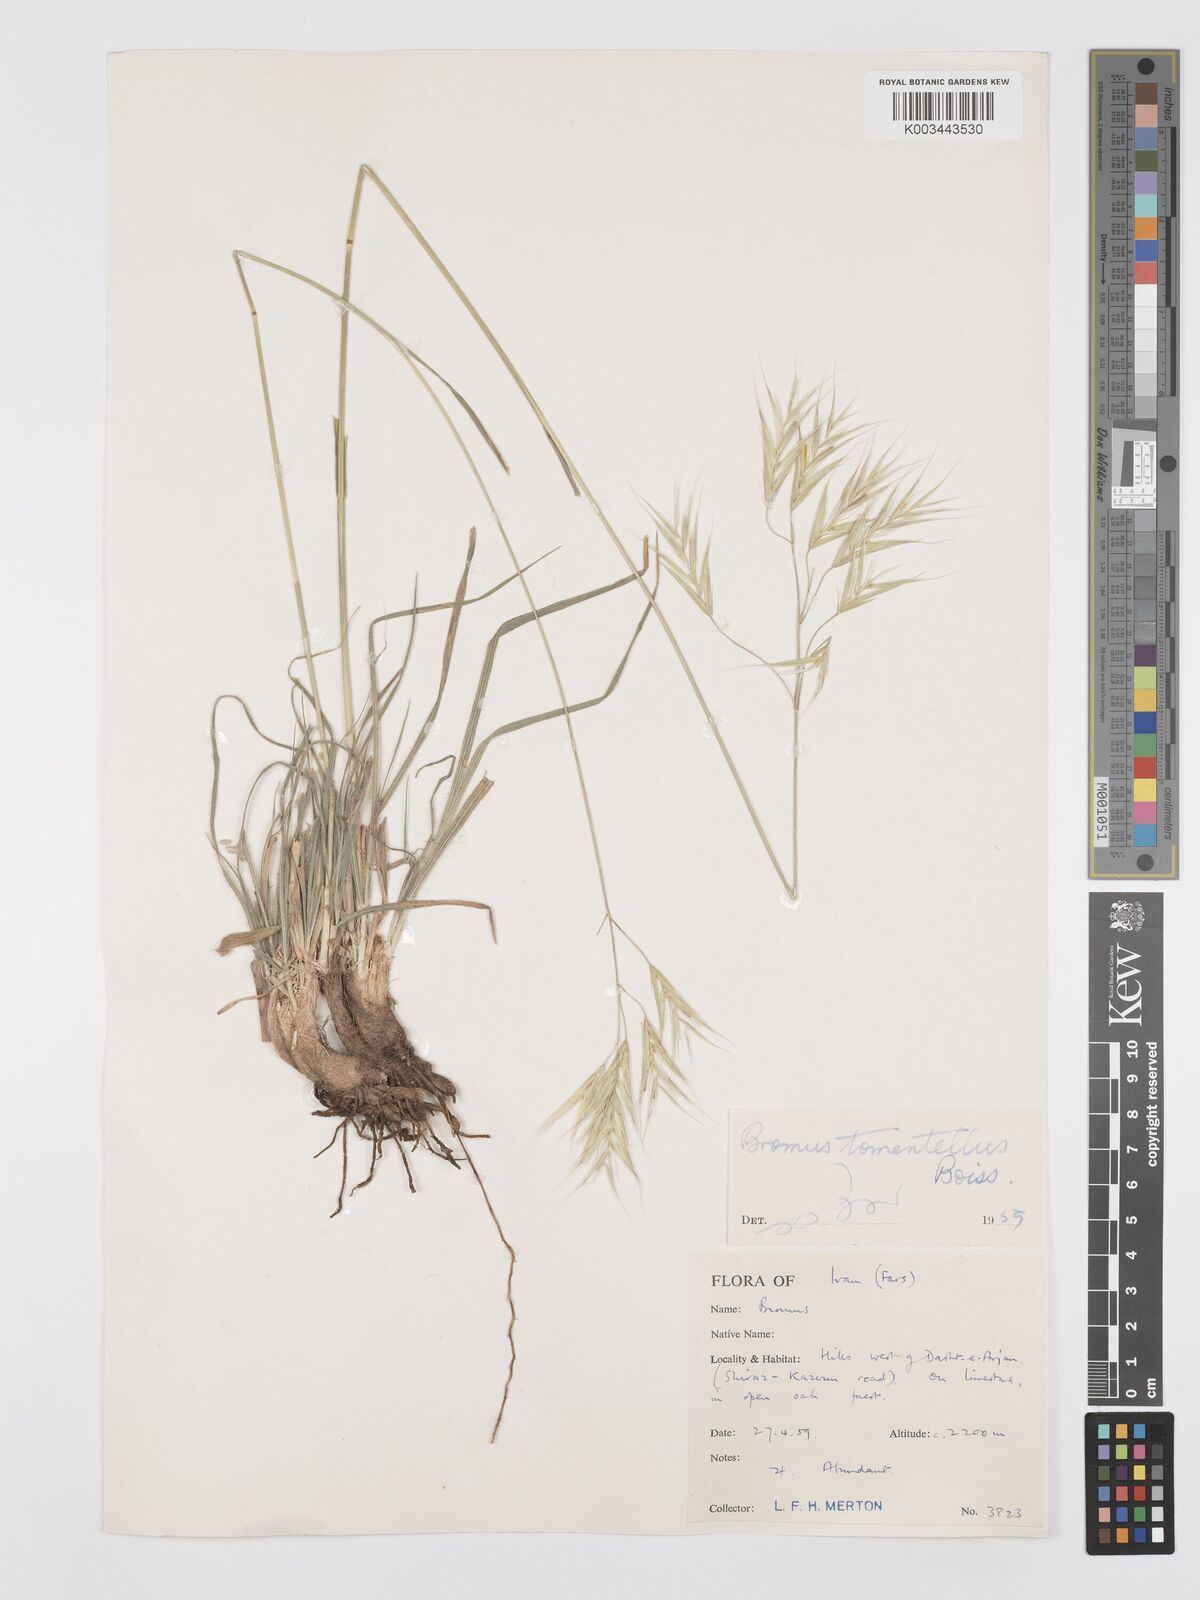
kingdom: Plantae
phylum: Tracheophyta
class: Liliopsida
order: Poales
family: Poaceae
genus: Bromus
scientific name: Bromus tomentellus
